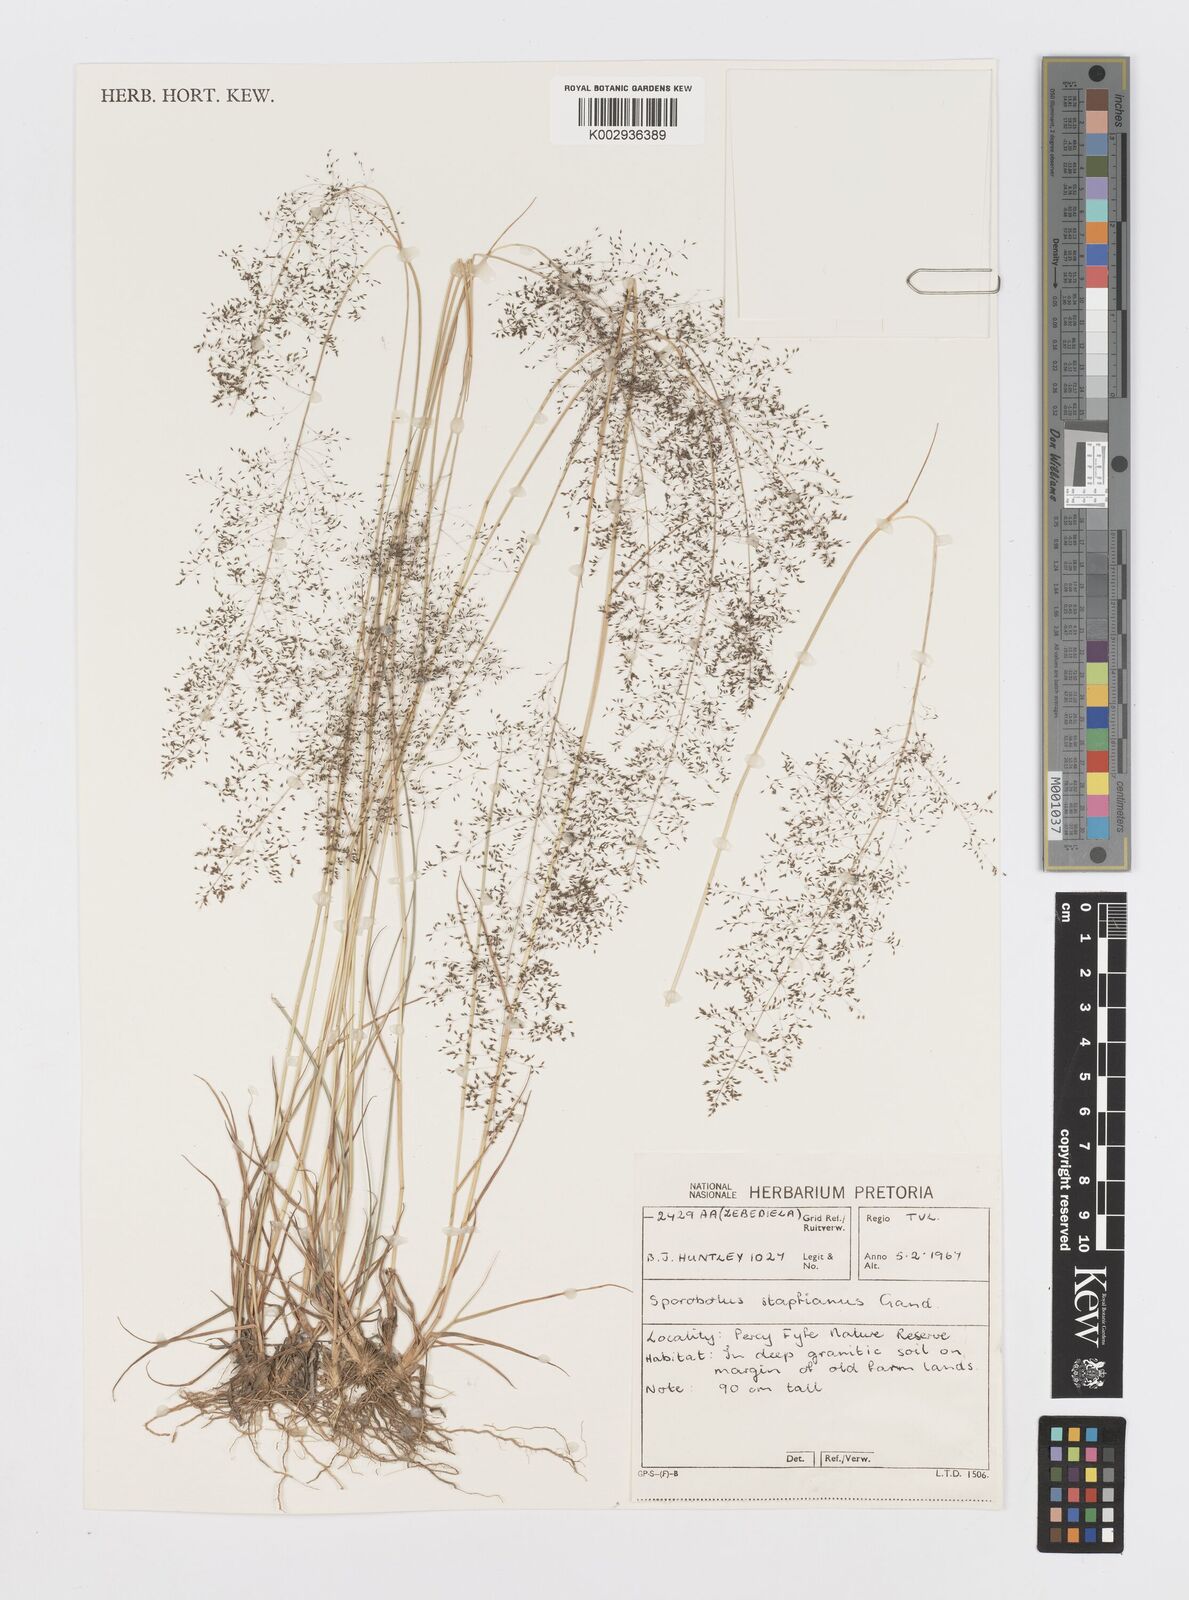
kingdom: Plantae
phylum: Tracheophyta
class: Liliopsida
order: Poales
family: Poaceae
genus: Sporobolus
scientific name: Sporobolus stapfianus
